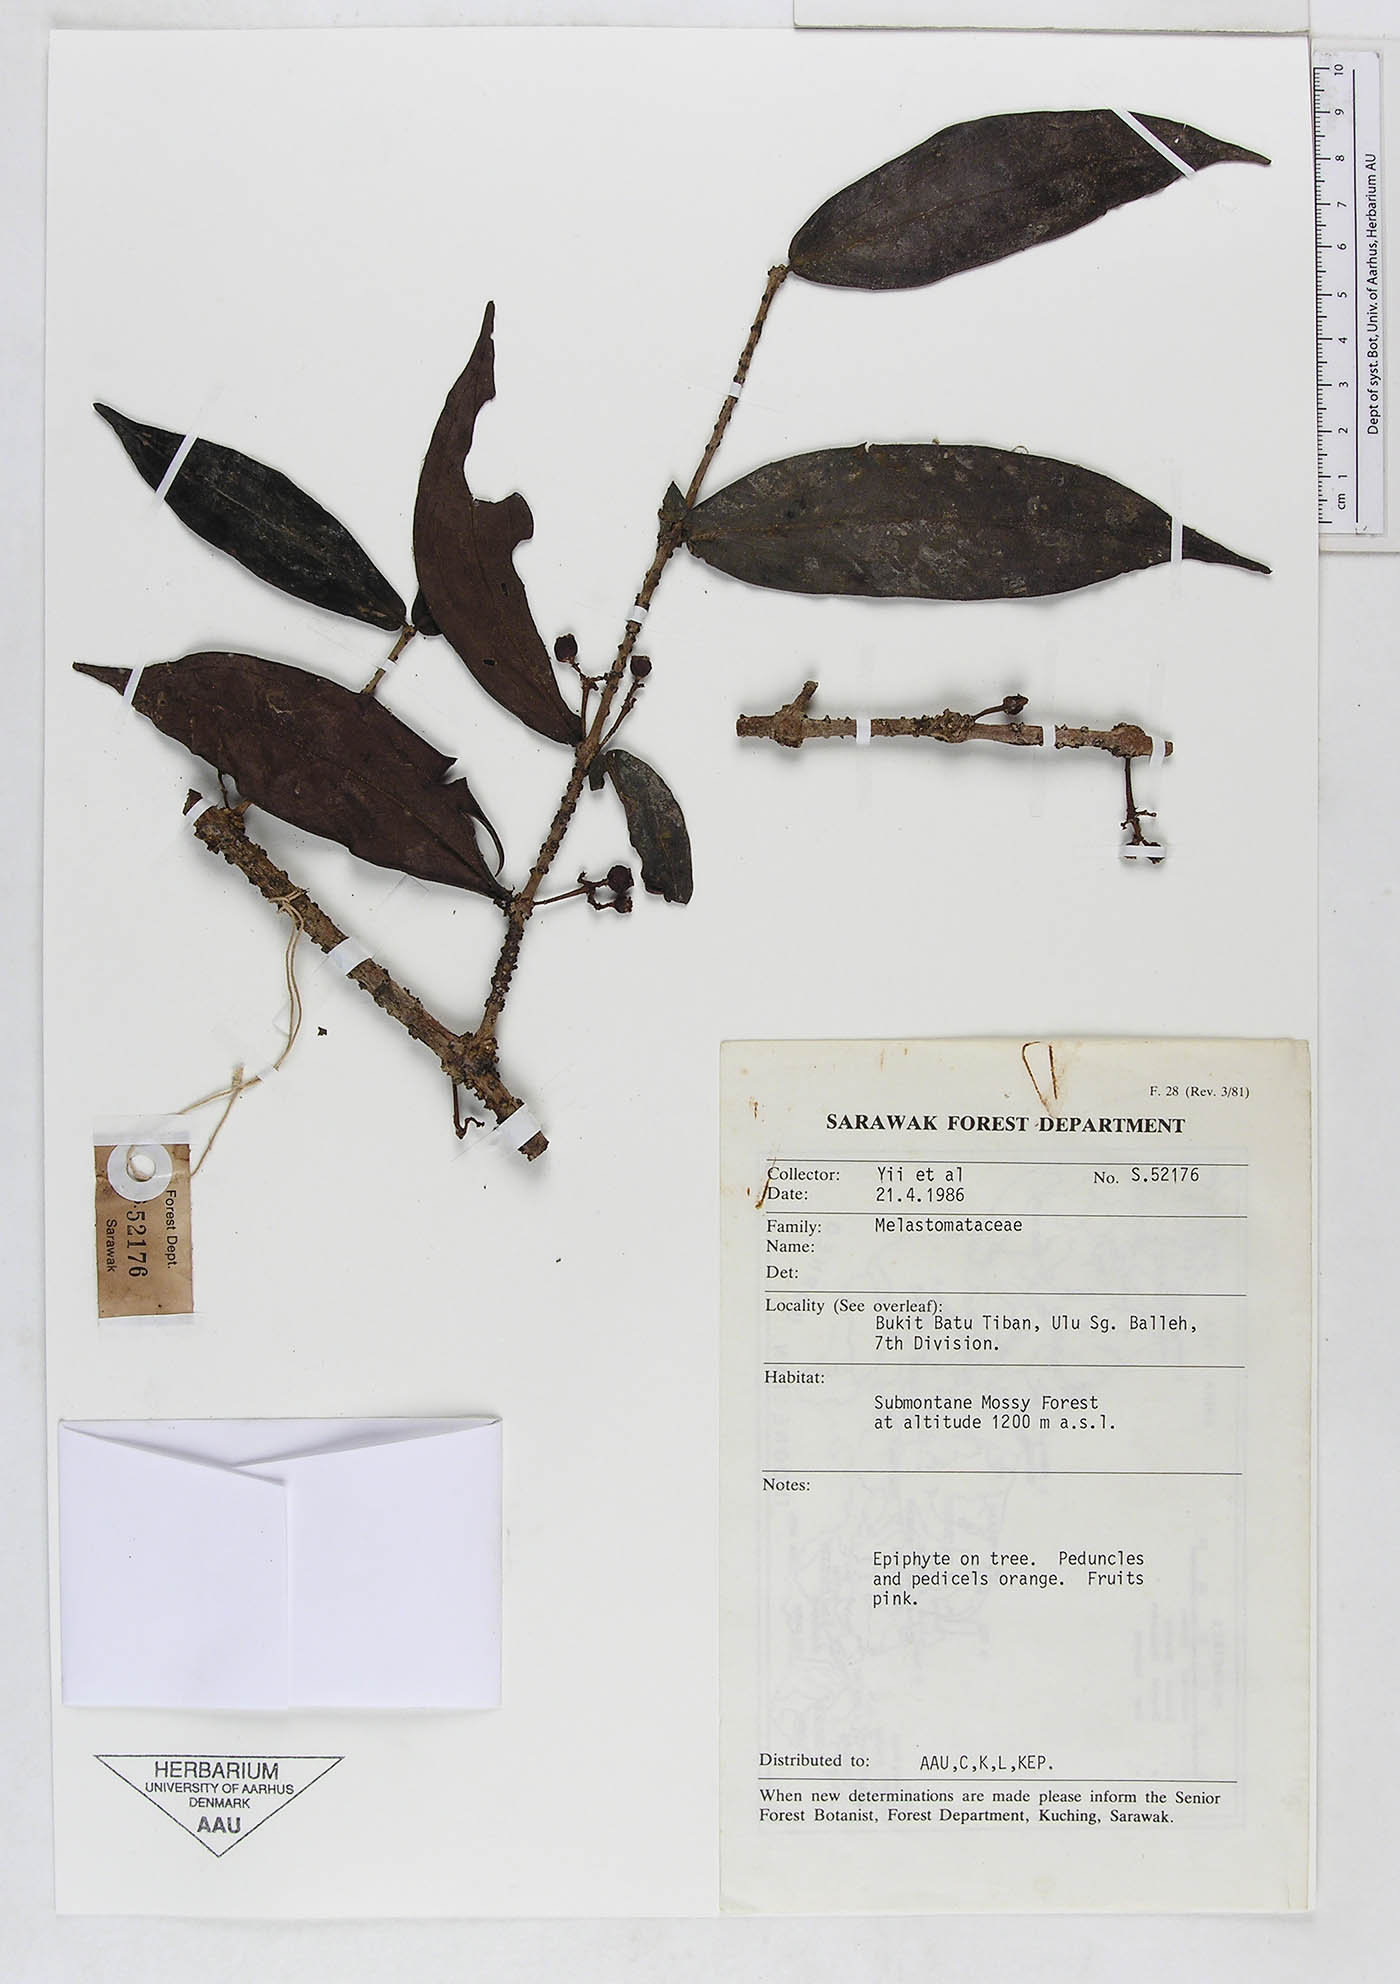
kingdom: Plantae
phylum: Tracheophyta
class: Magnoliopsida
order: Myrtales
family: Melastomataceae
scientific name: Melastomataceae
